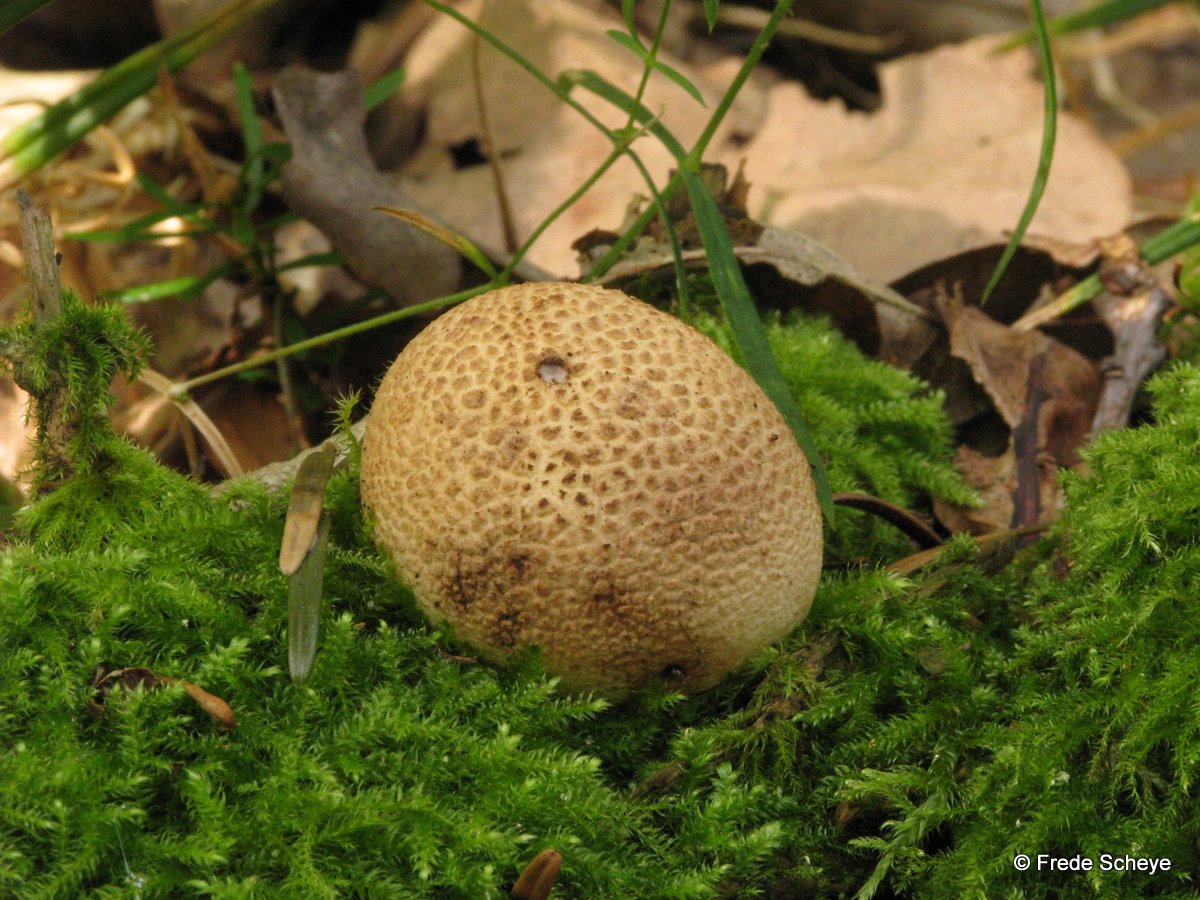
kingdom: Fungi
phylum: Basidiomycota
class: Agaricomycetes
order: Boletales
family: Sclerodermataceae
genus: Scleroderma
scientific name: Scleroderma citrinum
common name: almindelig bruskbold
